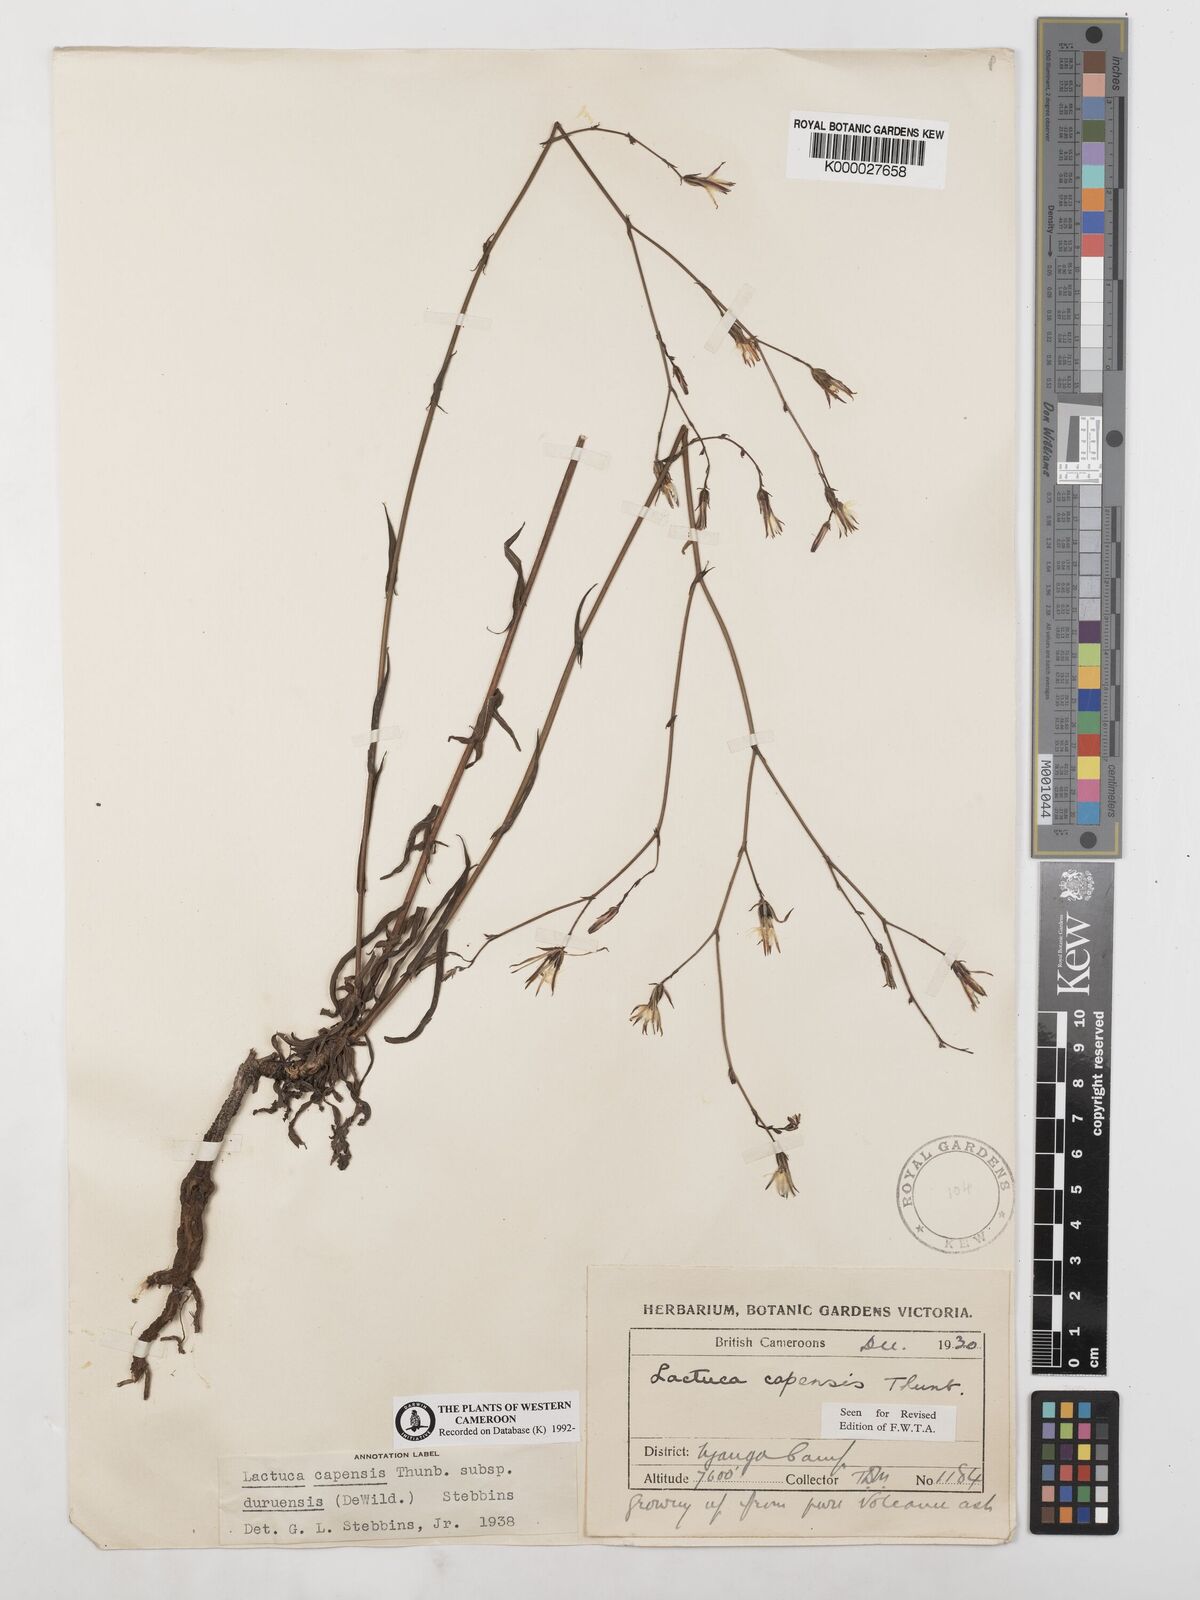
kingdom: Plantae
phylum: Tracheophyta
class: Magnoliopsida
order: Asterales
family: Asteraceae
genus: Lactuca
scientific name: Lactuca inermis
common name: Wild lettuce
